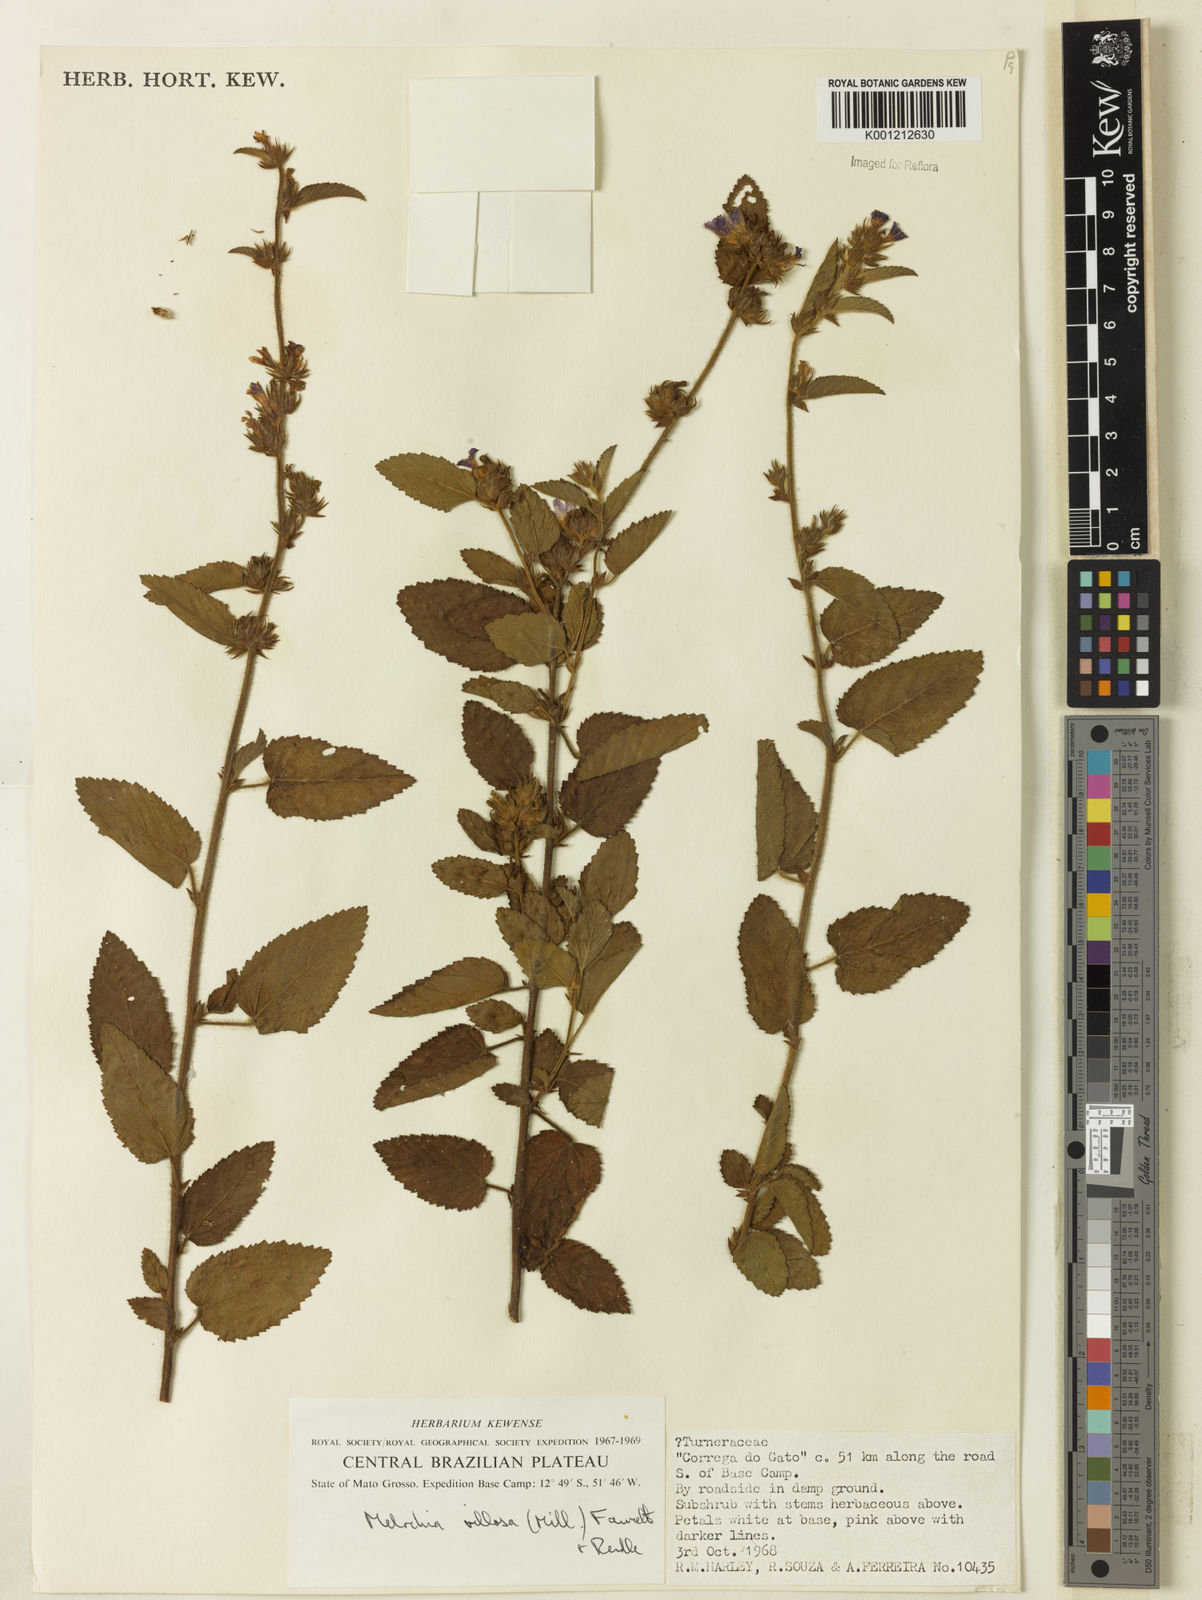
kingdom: Plantae
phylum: Tracheophyta
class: Magnoliopsida
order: Malvales
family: Malvaceae
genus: Melochia
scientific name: Melochia spicata
